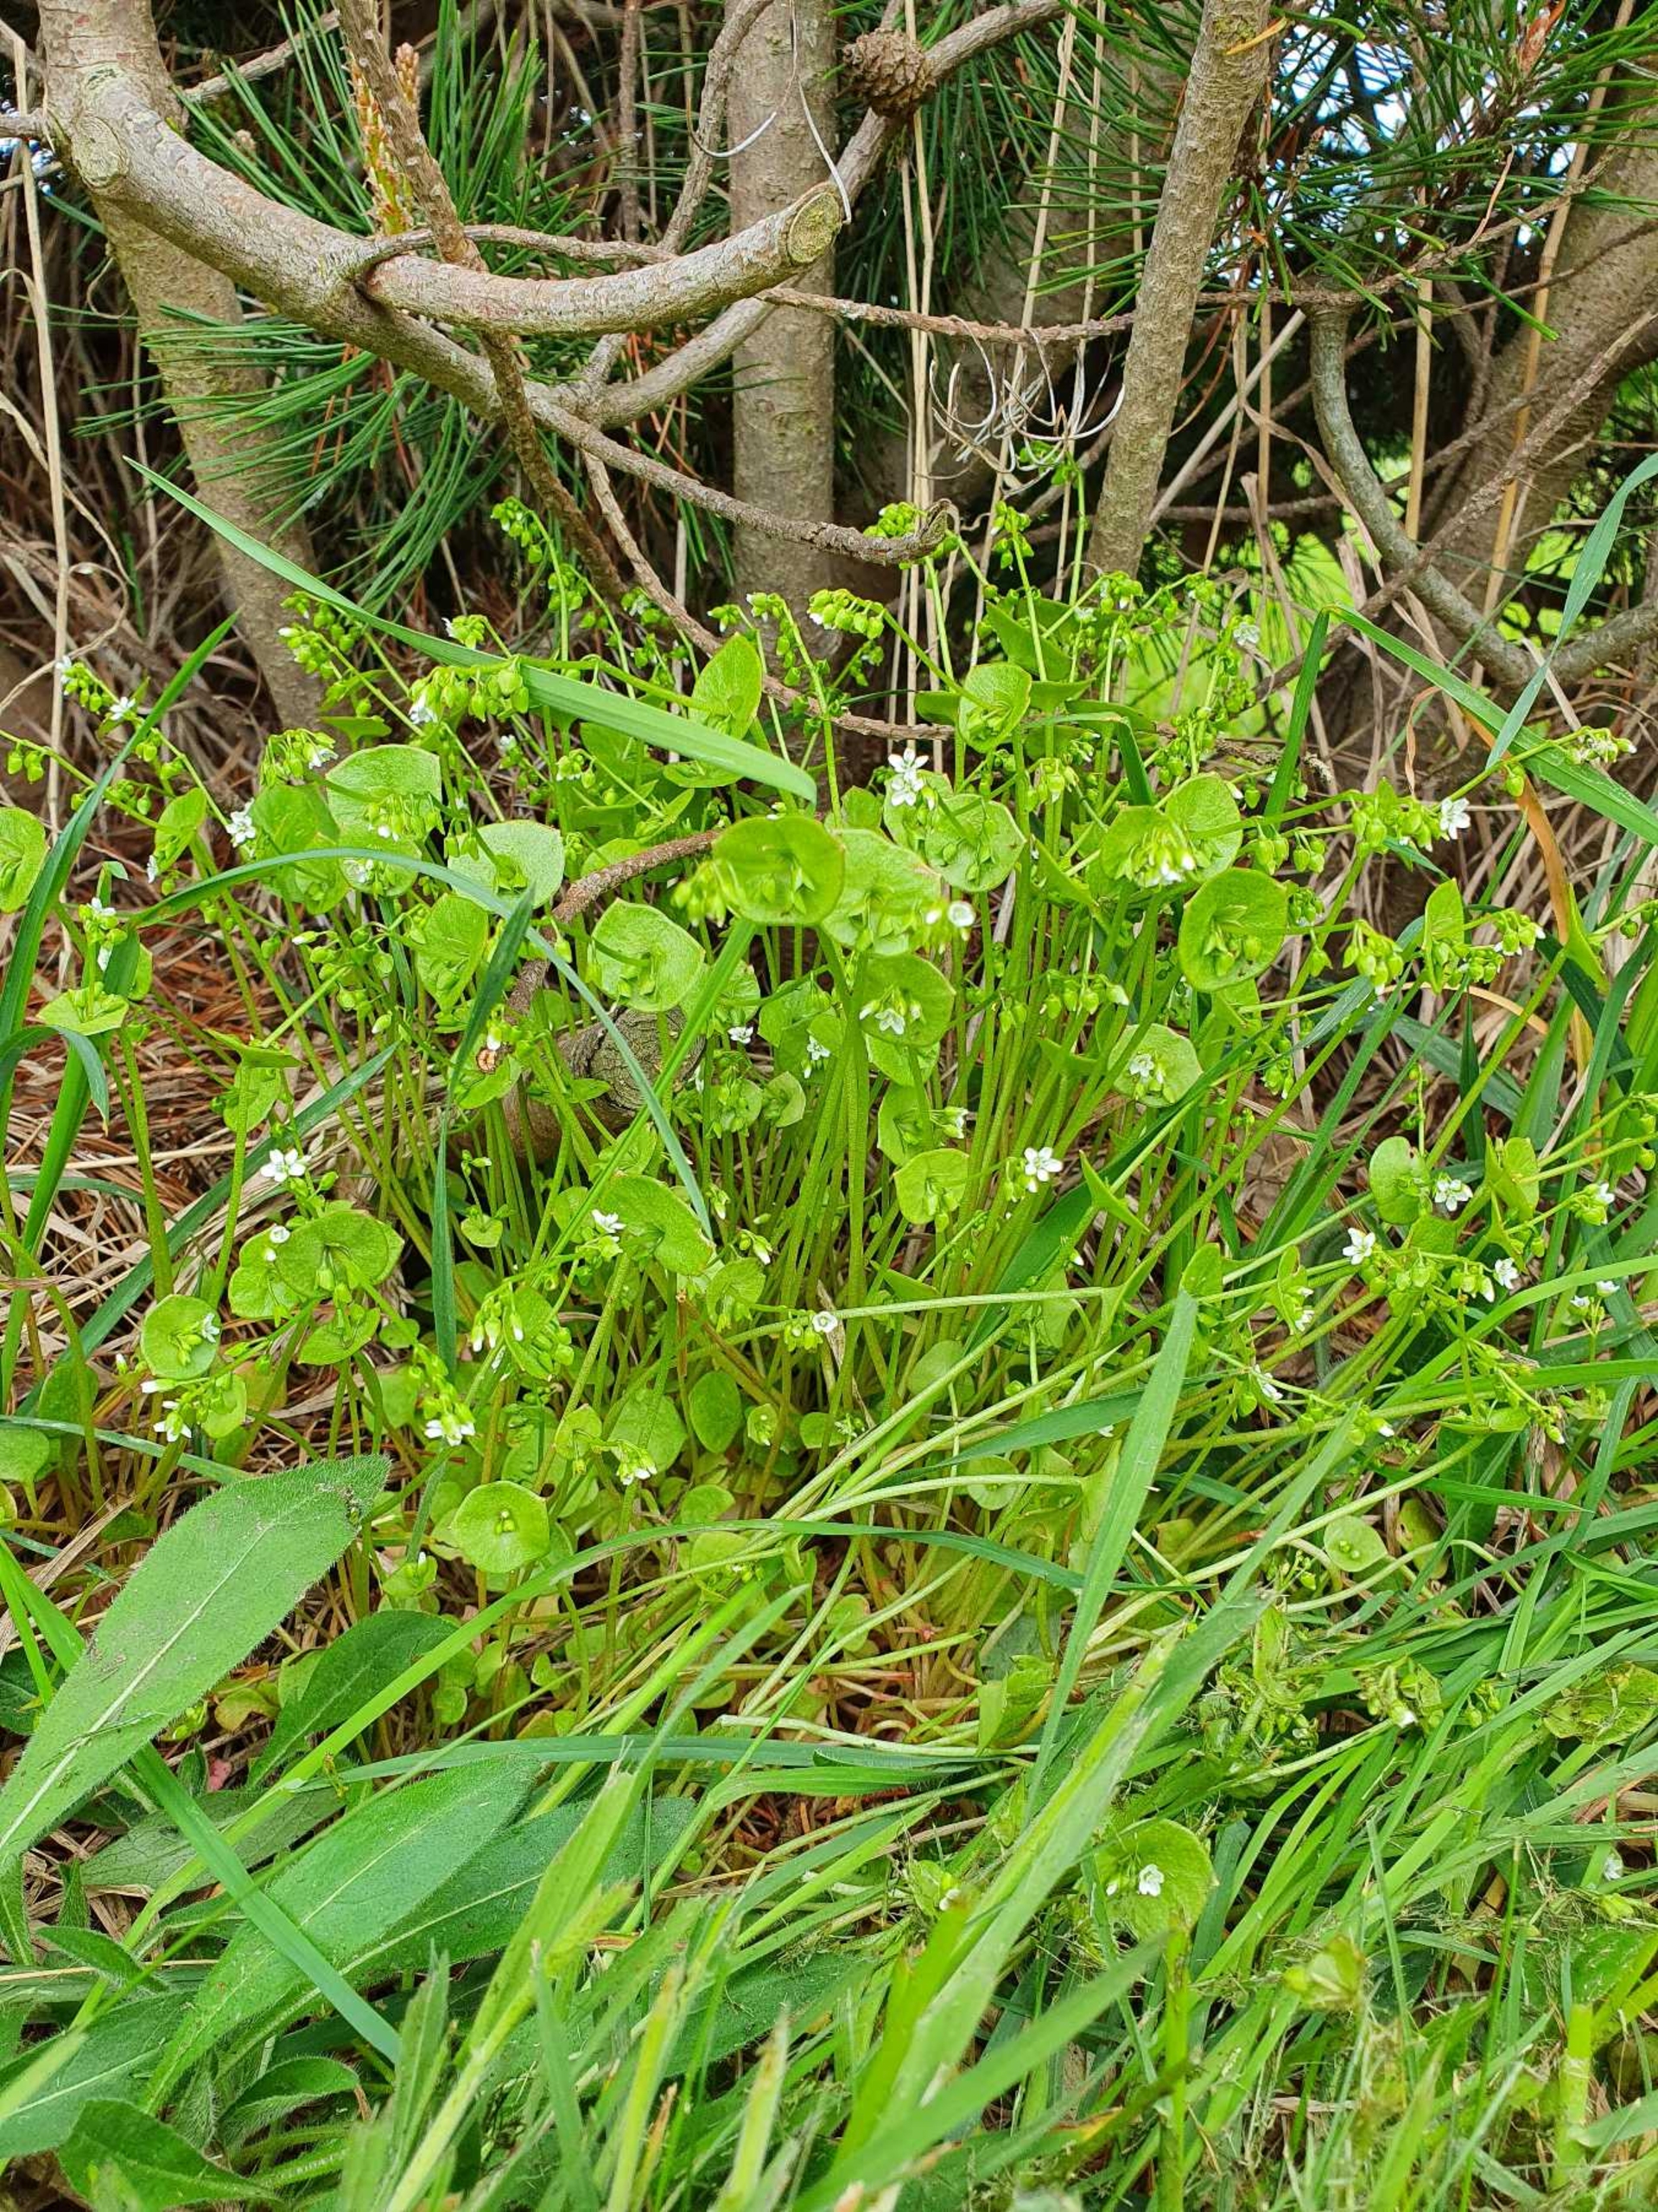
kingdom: Plantae
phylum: Tracheophyta
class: Magnoliopsida
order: Caryophyllales
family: Montiaceae
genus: Claytonia
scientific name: Claytonia perfoliata
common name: Spiselig vinterportulak
